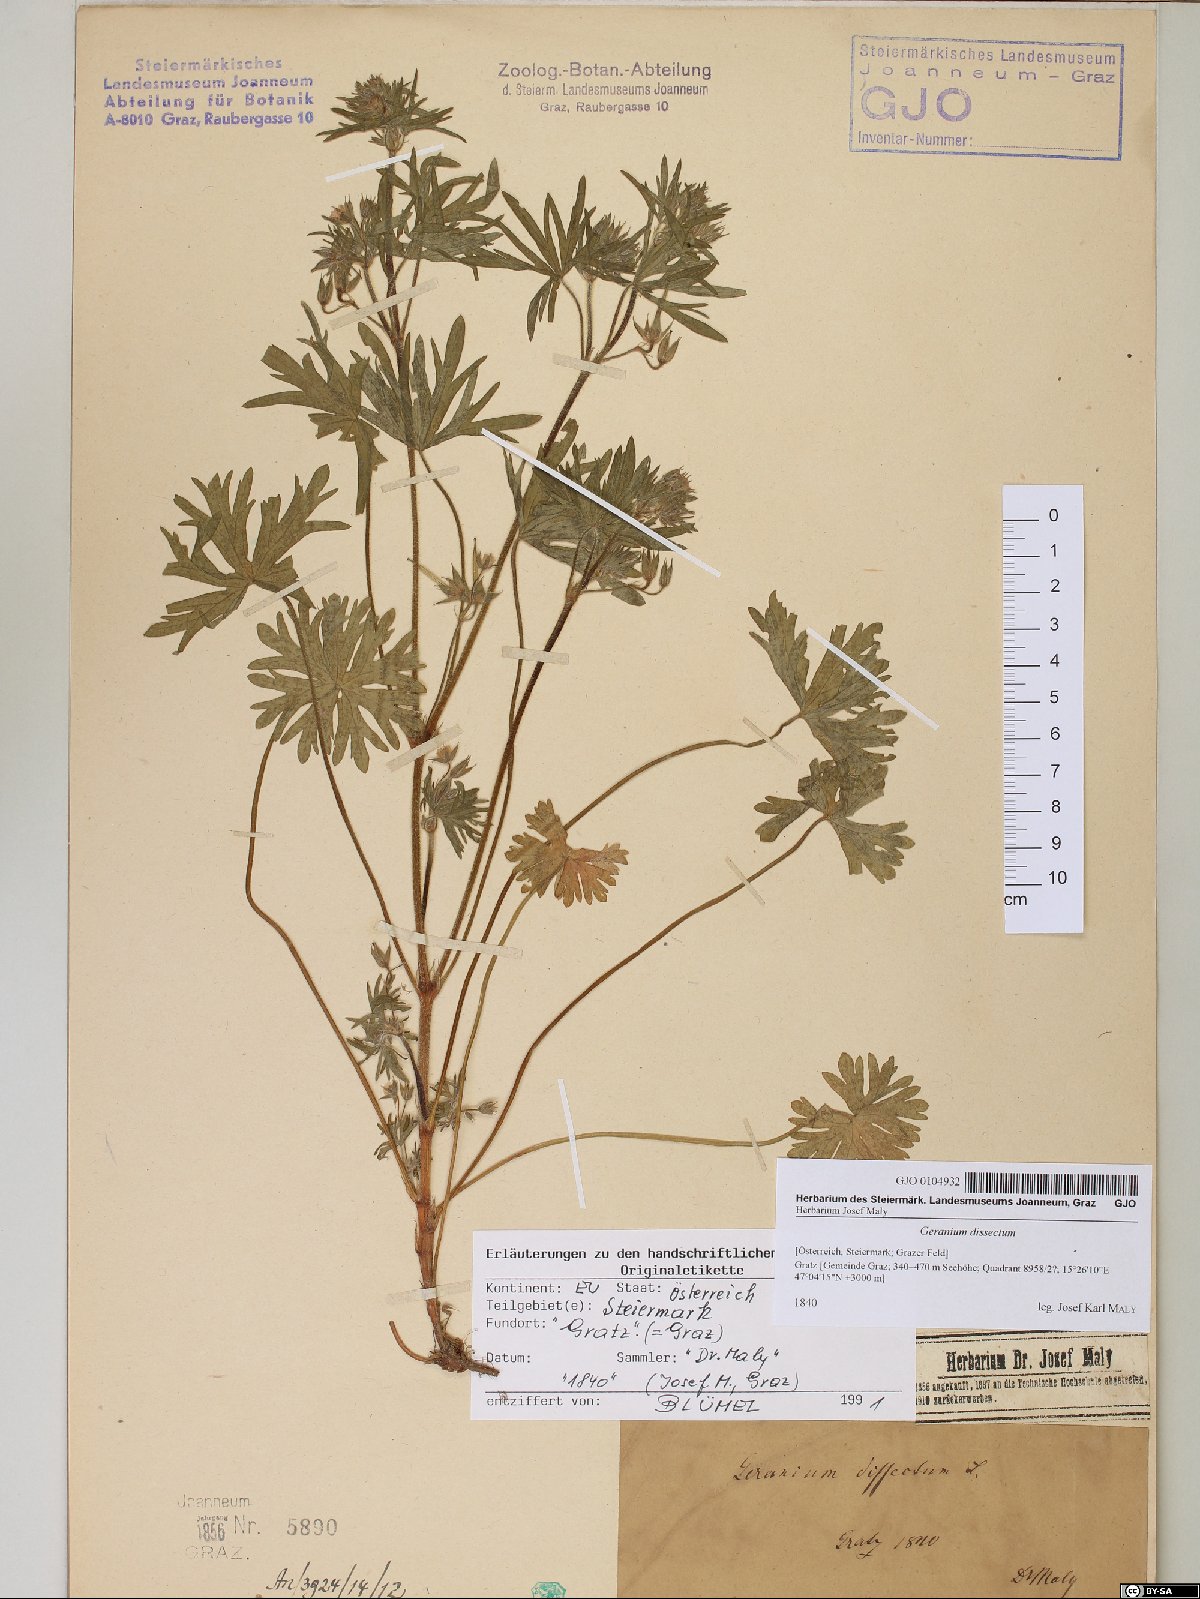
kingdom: Plantae
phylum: Tracheophyta
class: Magnoliopsida
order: Geraniales
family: Geraniaceae
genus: Geranium
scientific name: Geranium dissectum
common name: Cut-leaved crane's-bill
